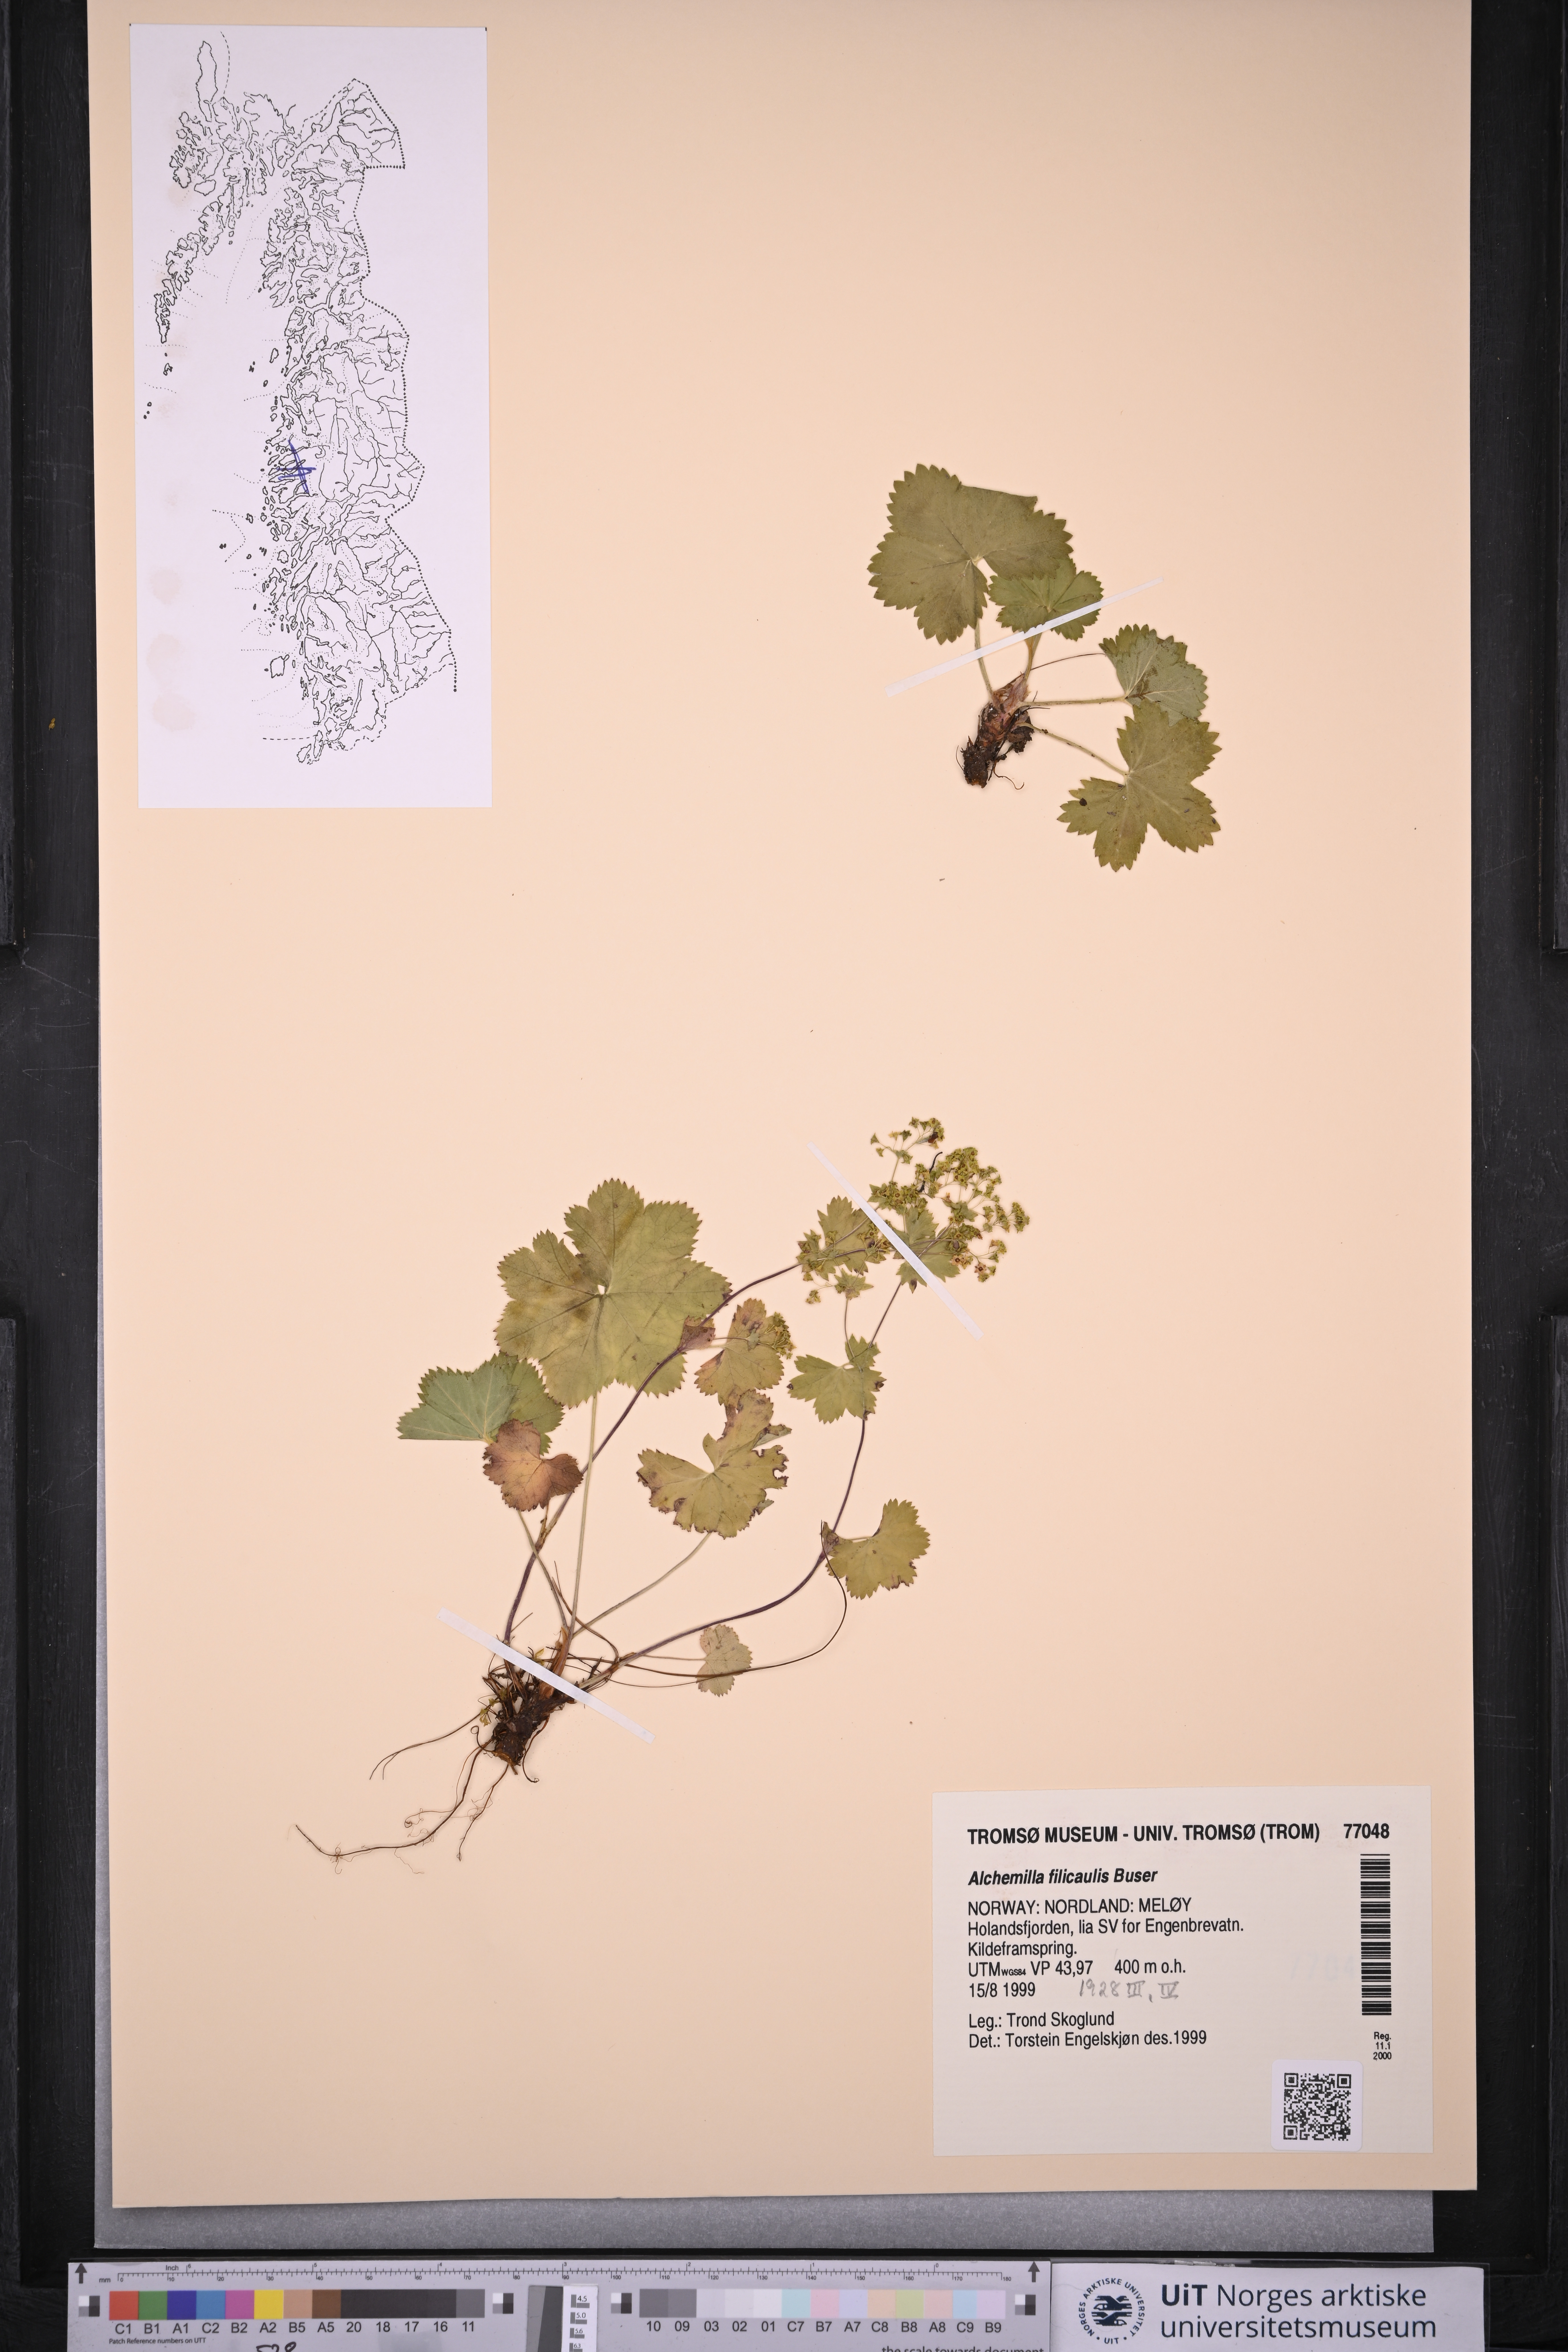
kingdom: Plantae
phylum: Tracheophyta
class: Magnoliopsida
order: Rosales
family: Rosaceae
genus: Alchemilla
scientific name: Alchemilla filicaulis
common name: Hairy lady's-mantle
